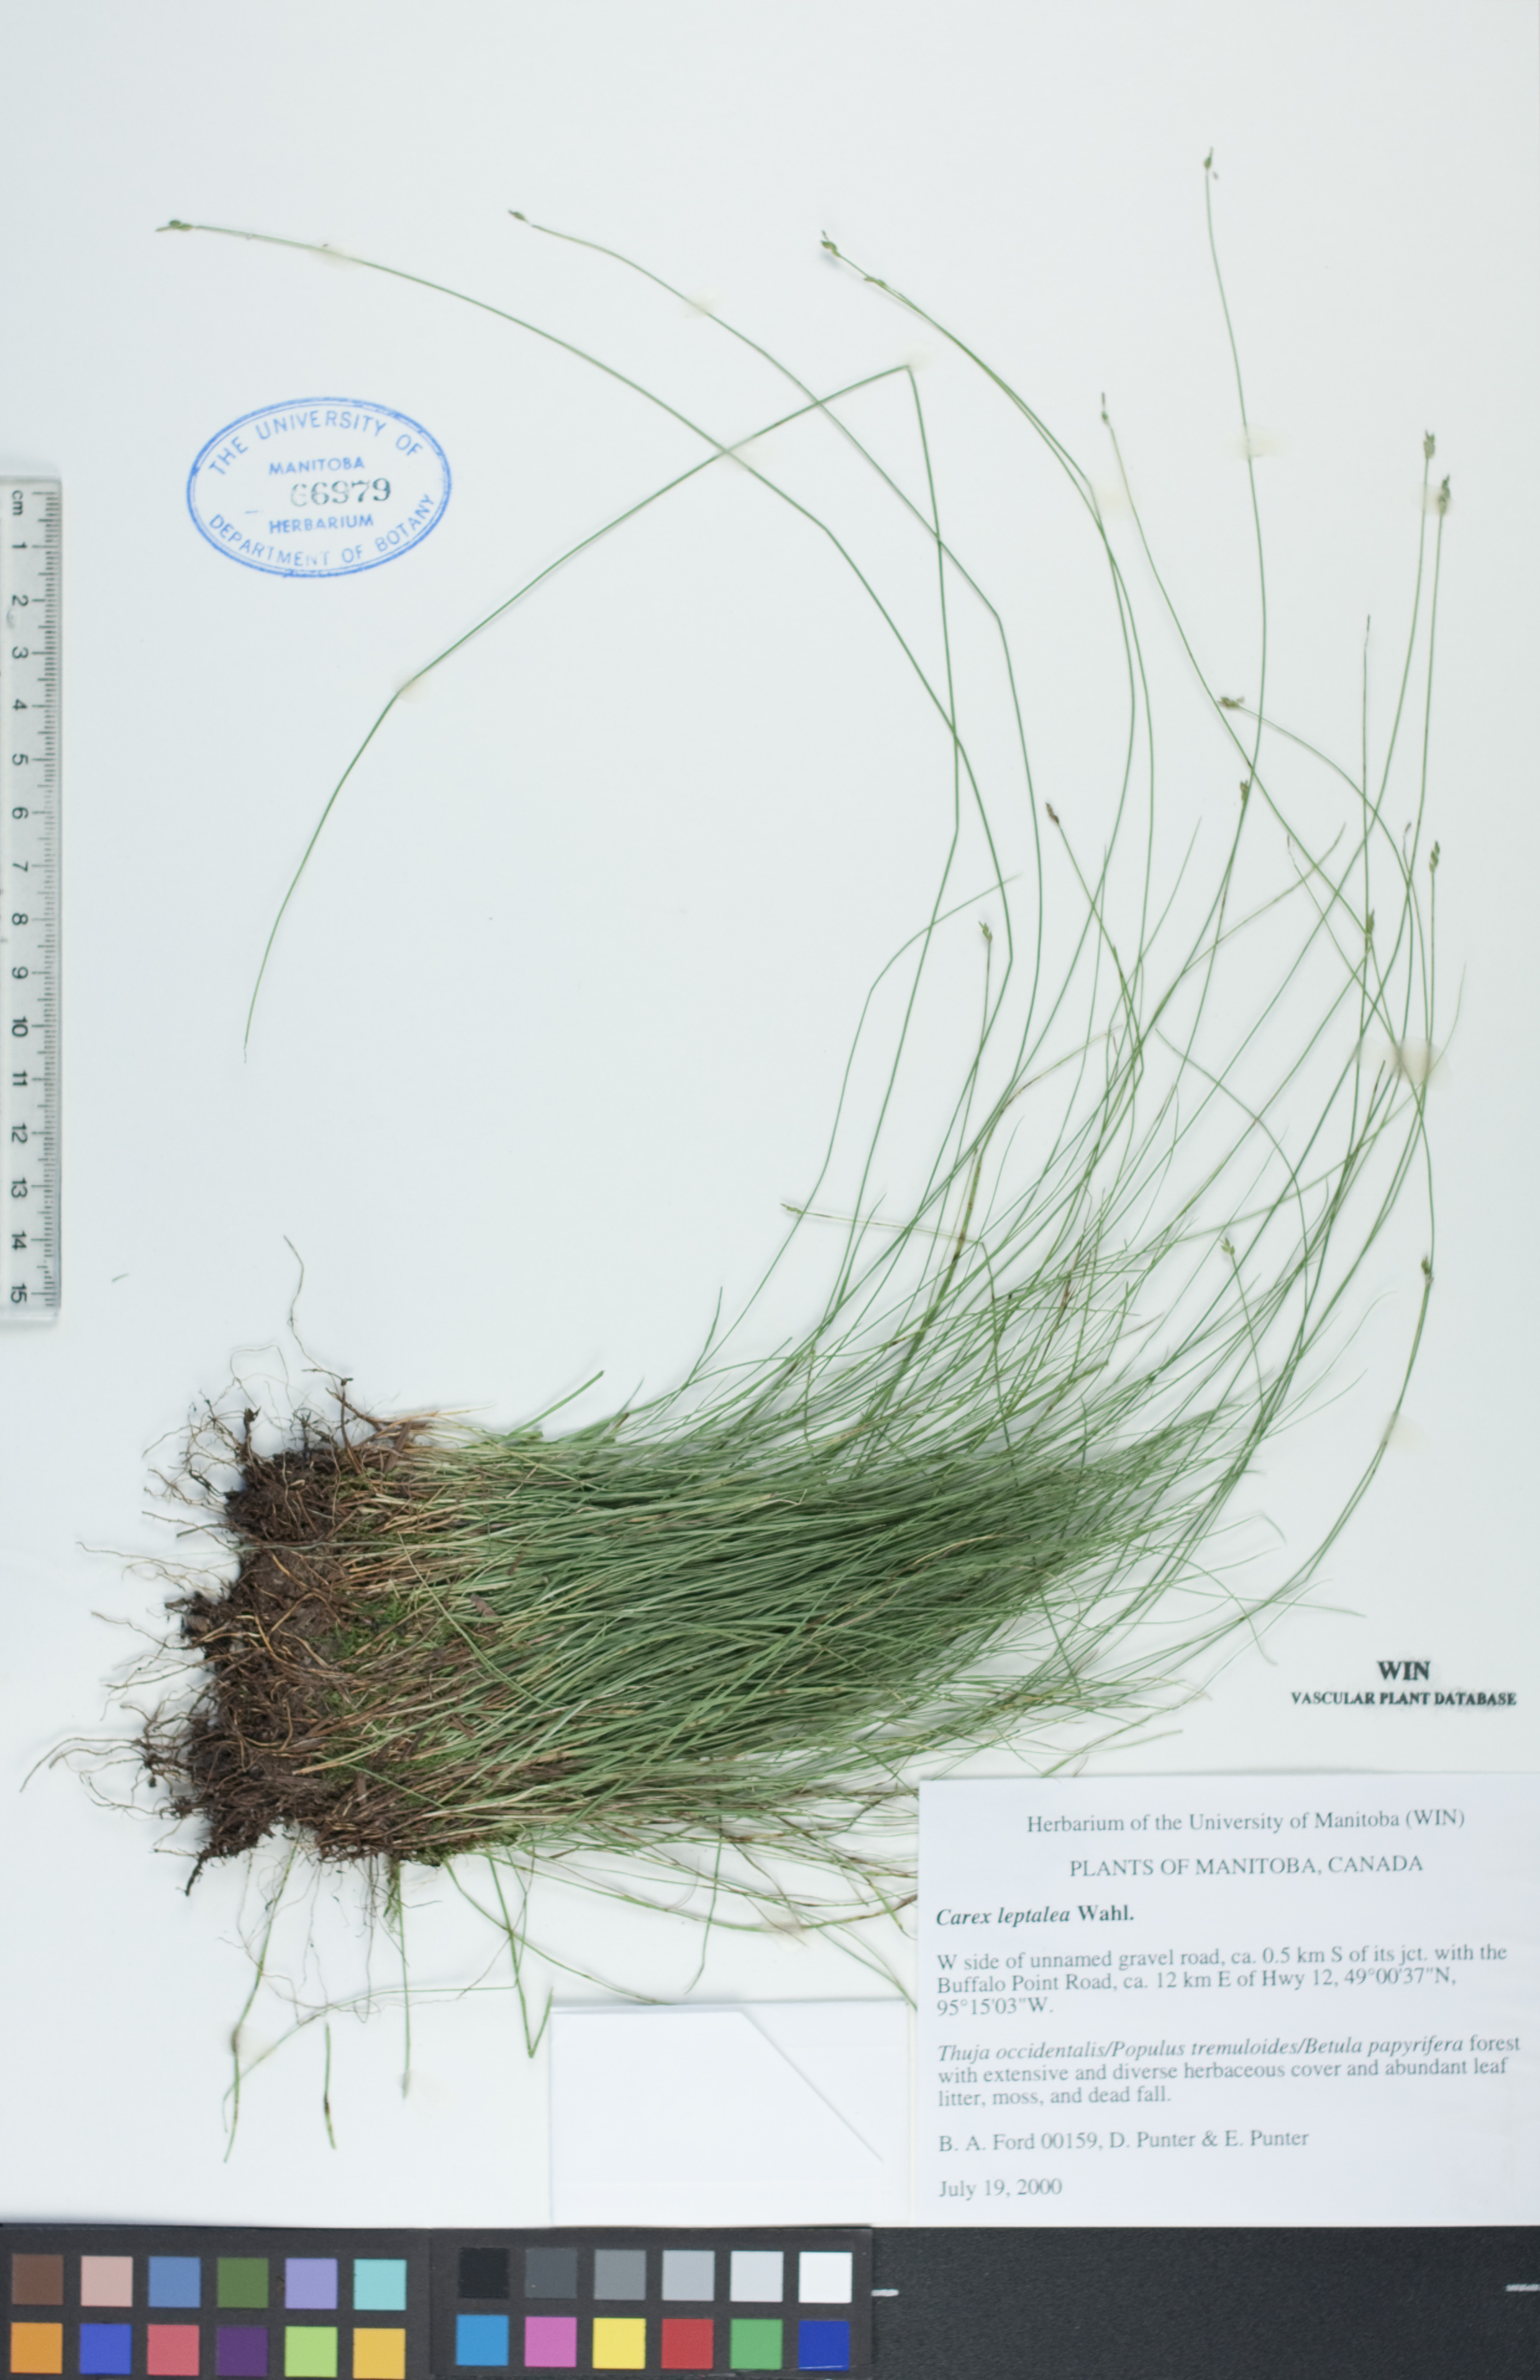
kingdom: Plantae
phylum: Tracheophyta
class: Liliopsida
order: Poales
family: Cyperaceae
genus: Carex
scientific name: Carex leptalea
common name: Bristly-stalked sedge
